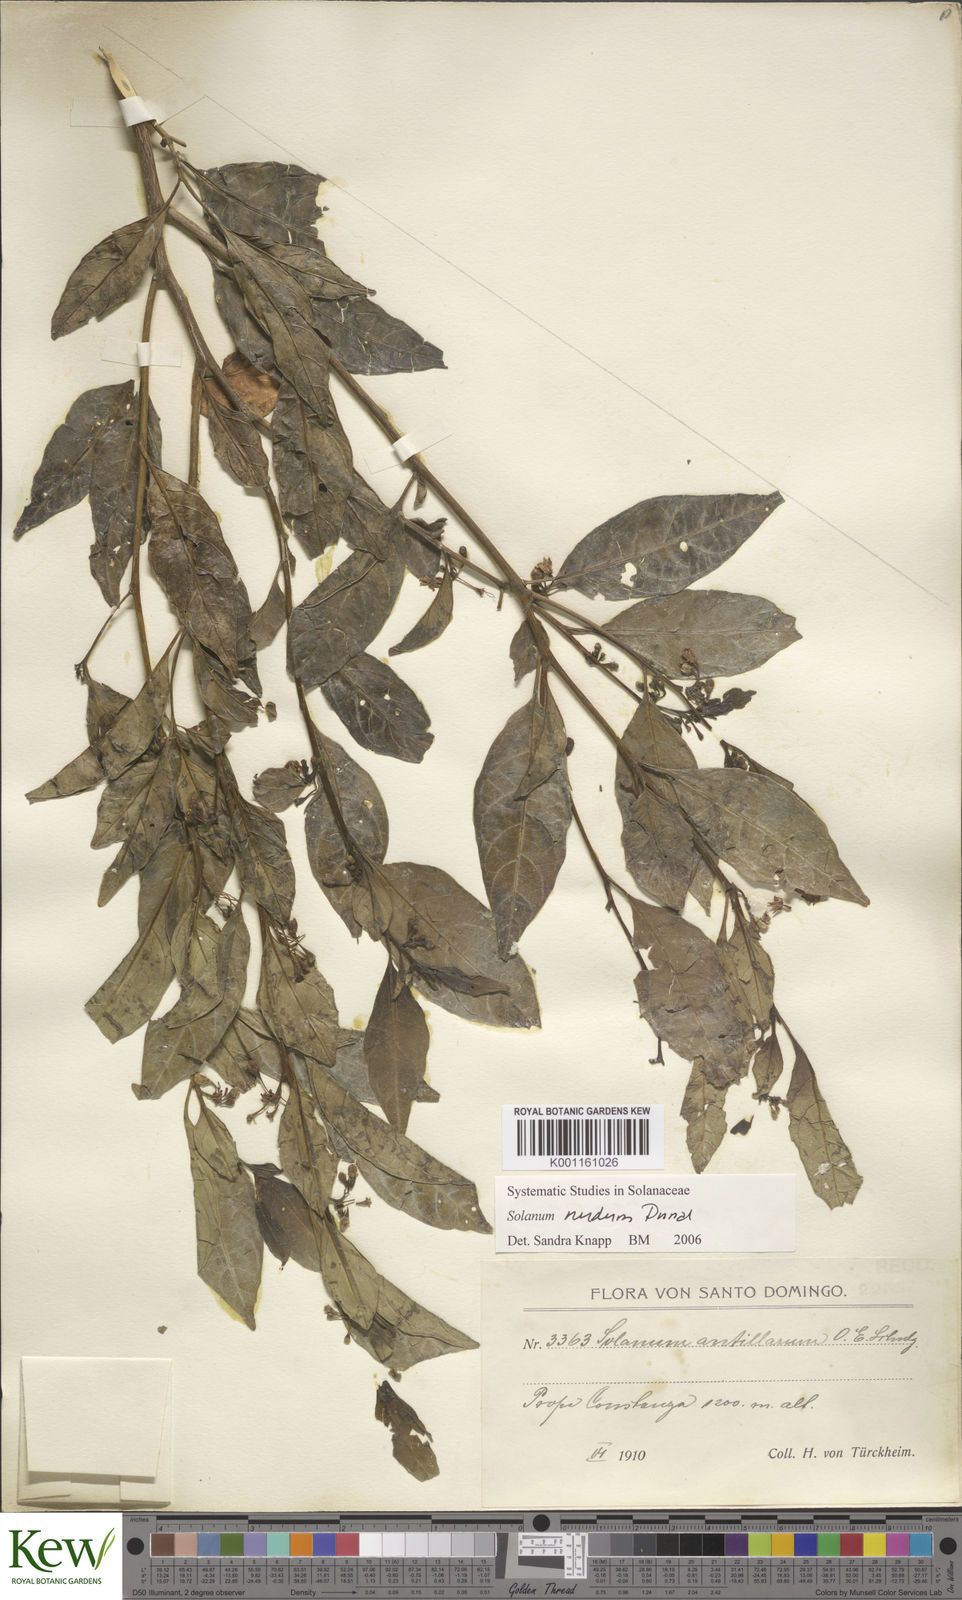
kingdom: Plantae
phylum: Tracheophyta
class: Magnoliopsida
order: Solanales
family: Solanaceae
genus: Solanum
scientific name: Solanum nudum
